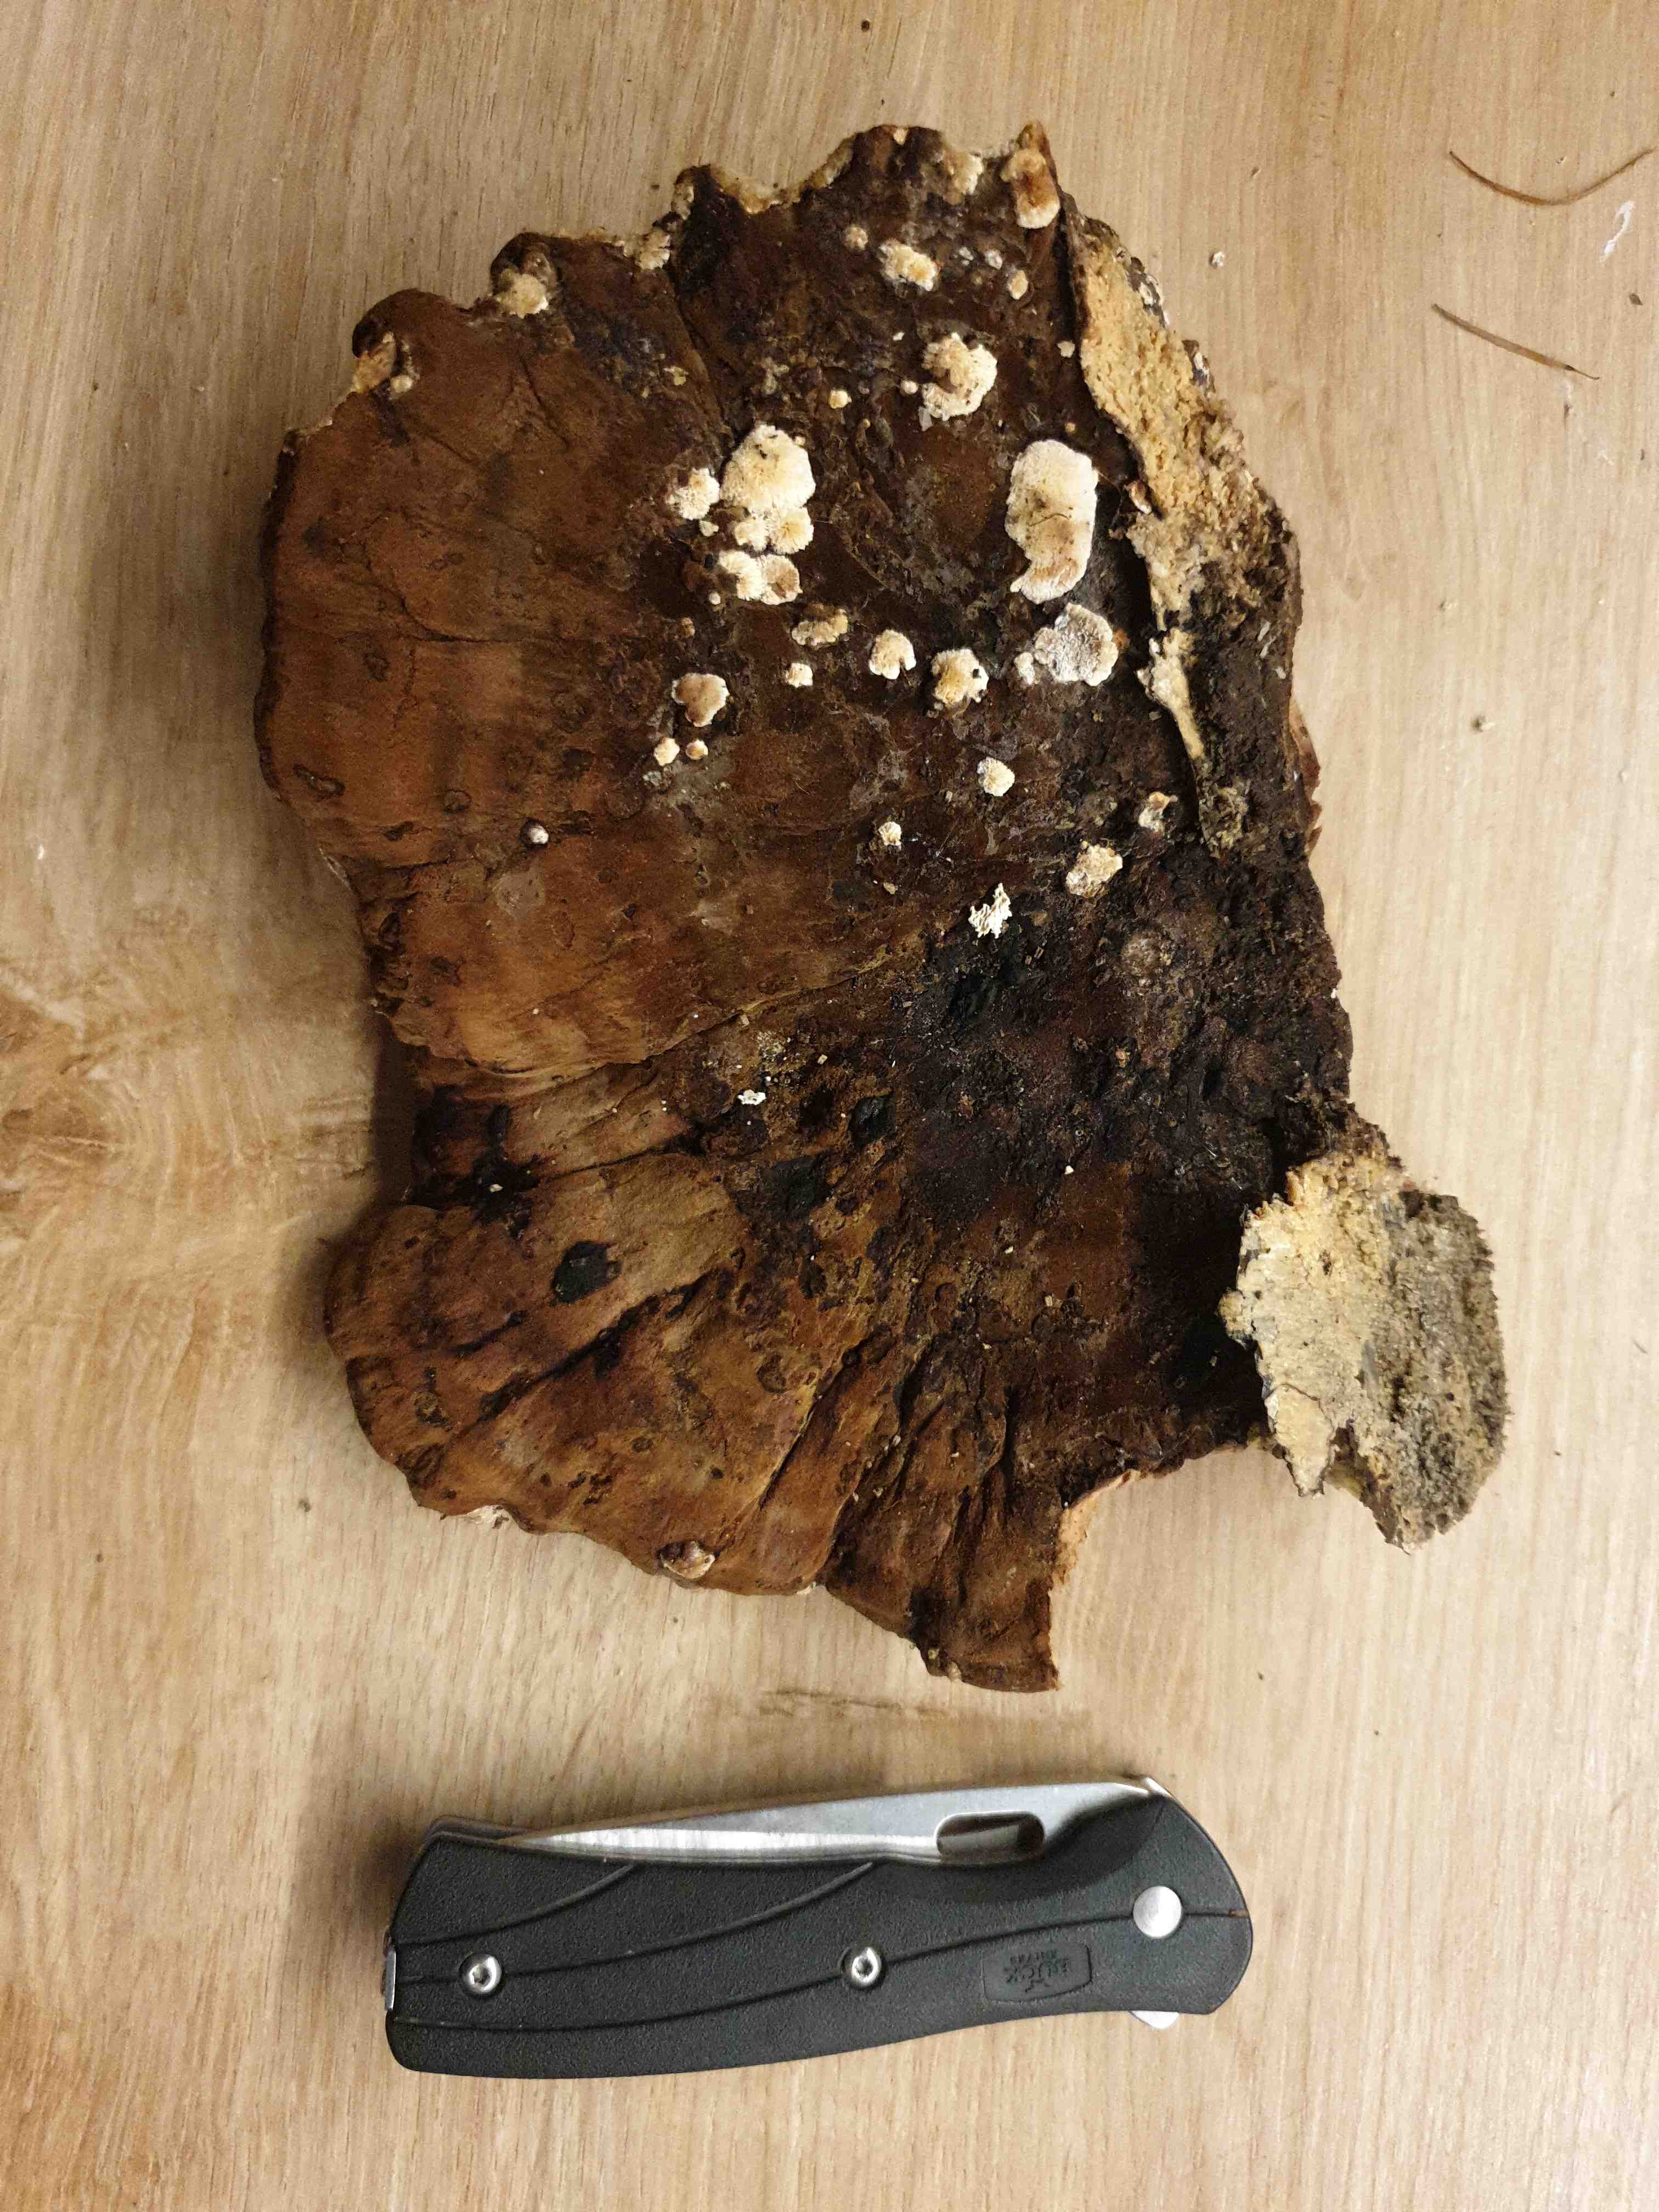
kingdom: Fungi
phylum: Basidiomycota
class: Agaricomycetes
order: Polyporales
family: Ischnodermataceae
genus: Ischnoderma
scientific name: Ischnoderma resinosum
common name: løv-tjæreporesvamp
